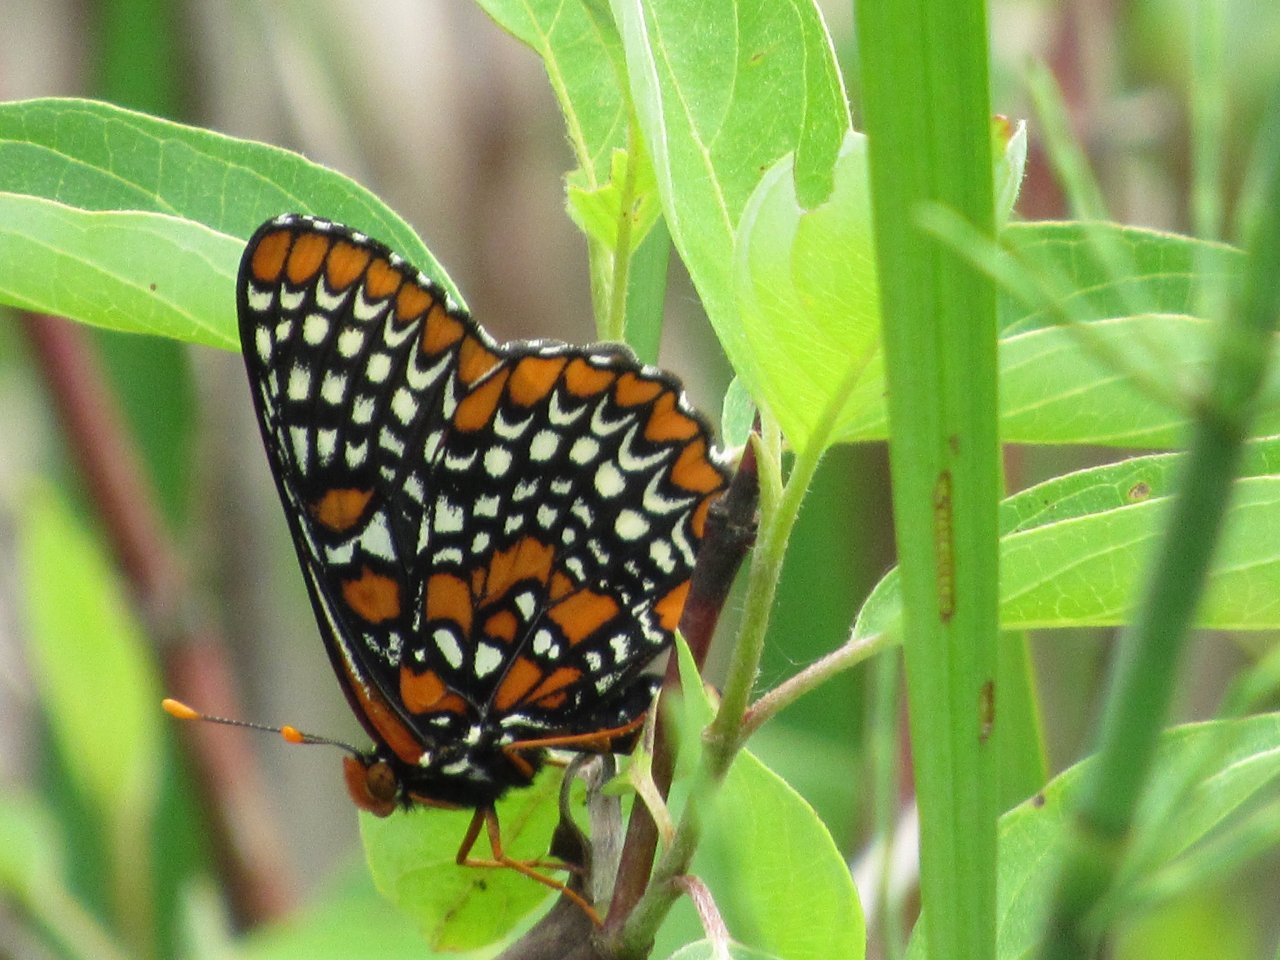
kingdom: Animalia
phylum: Arthropoda
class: Insecta
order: Lepidoptera
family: Nymphalidae
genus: Euphydryas
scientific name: Euphydryas phaeton
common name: Baltimore Checkerspot
